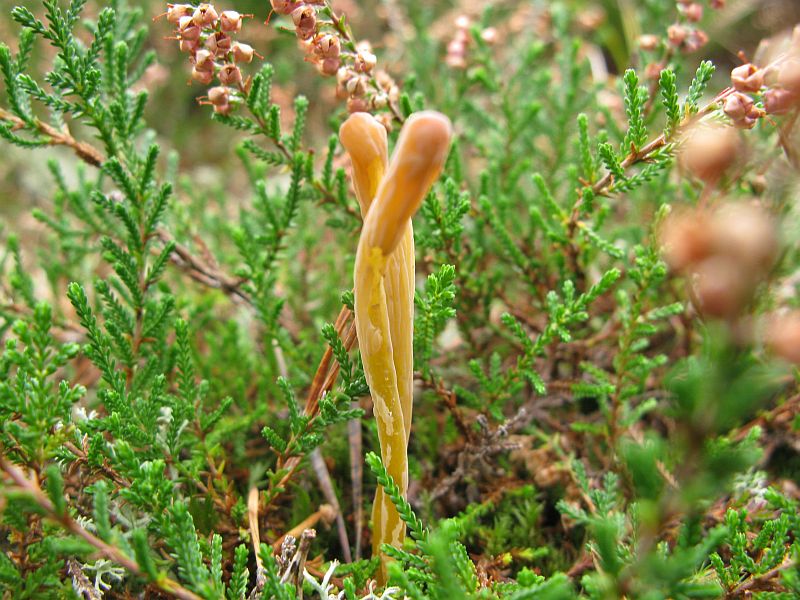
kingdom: Fungi
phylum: Basidiomycota
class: Agaricomycetes
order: Agaricales
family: Clavariaceae
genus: Clavaria
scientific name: Clavaria argillacea
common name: lerfarvet køllesvamp
